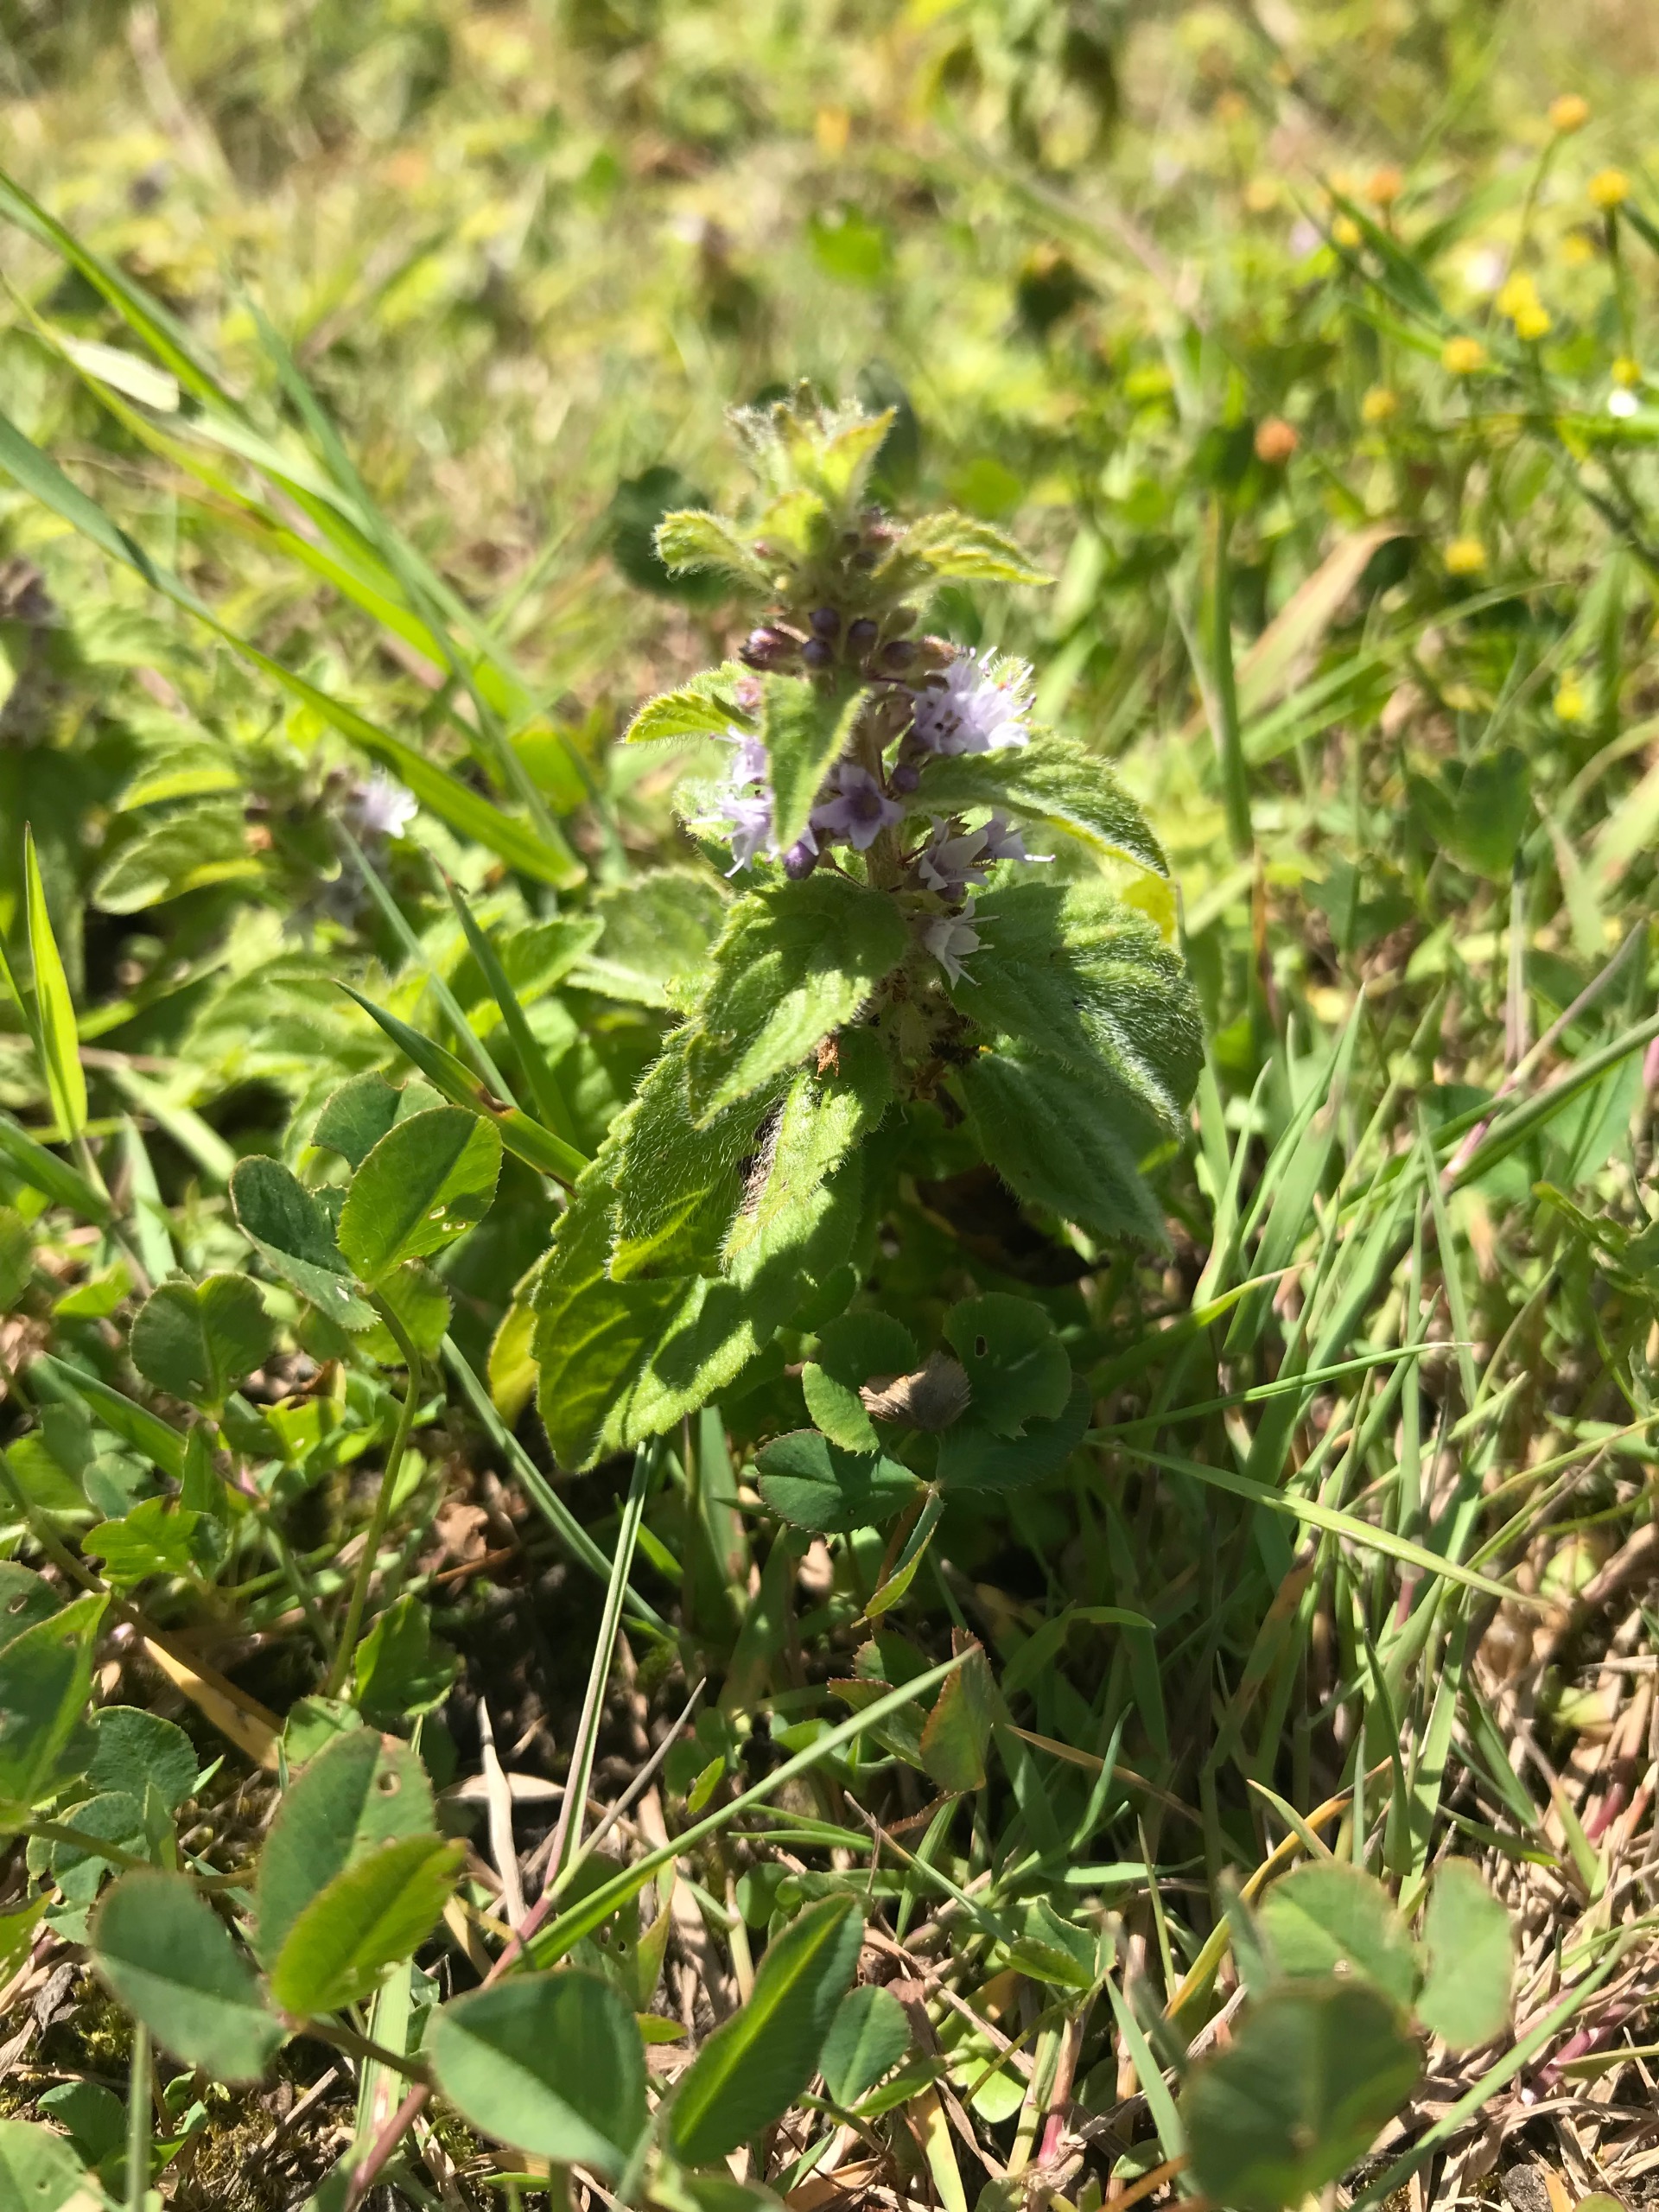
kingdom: Plantae
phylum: Tracheophyta
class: Magnoliopsida
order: Lamiales
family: Lamiaceae
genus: Mentha
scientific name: Mentha arvensis
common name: Ager-mynte
